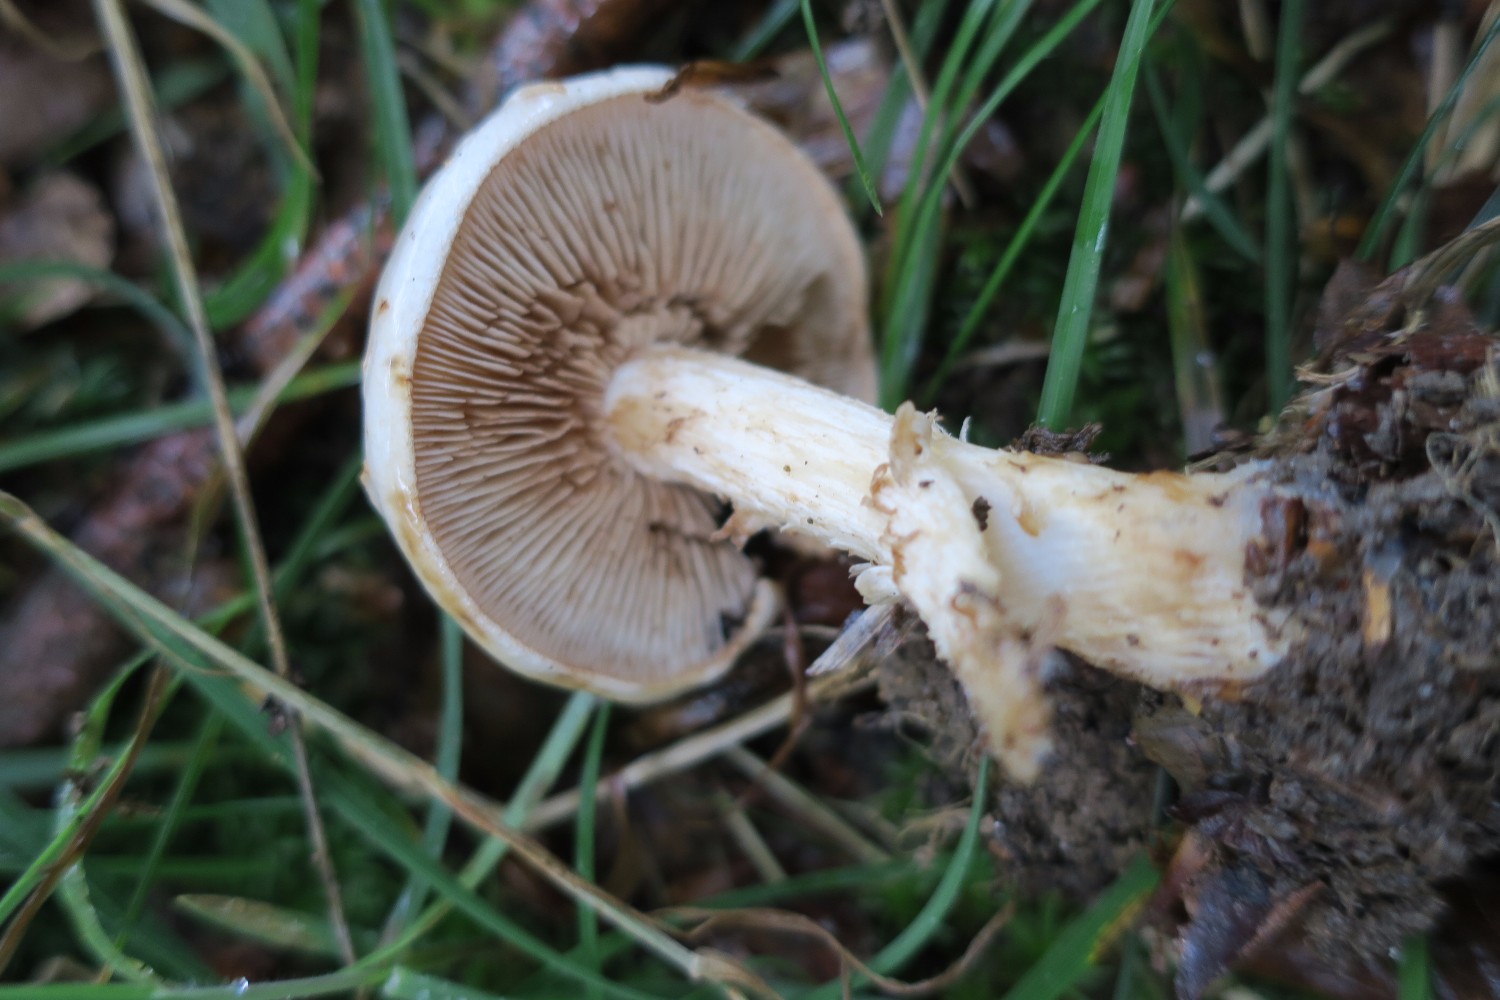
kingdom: Fungi
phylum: Basidiomycota
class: Agaricomycetes
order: Agaricales
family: Hymenogastraceae
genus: Hebeloma
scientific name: Hebeloma radicosum
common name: pælerods-tåreblad
